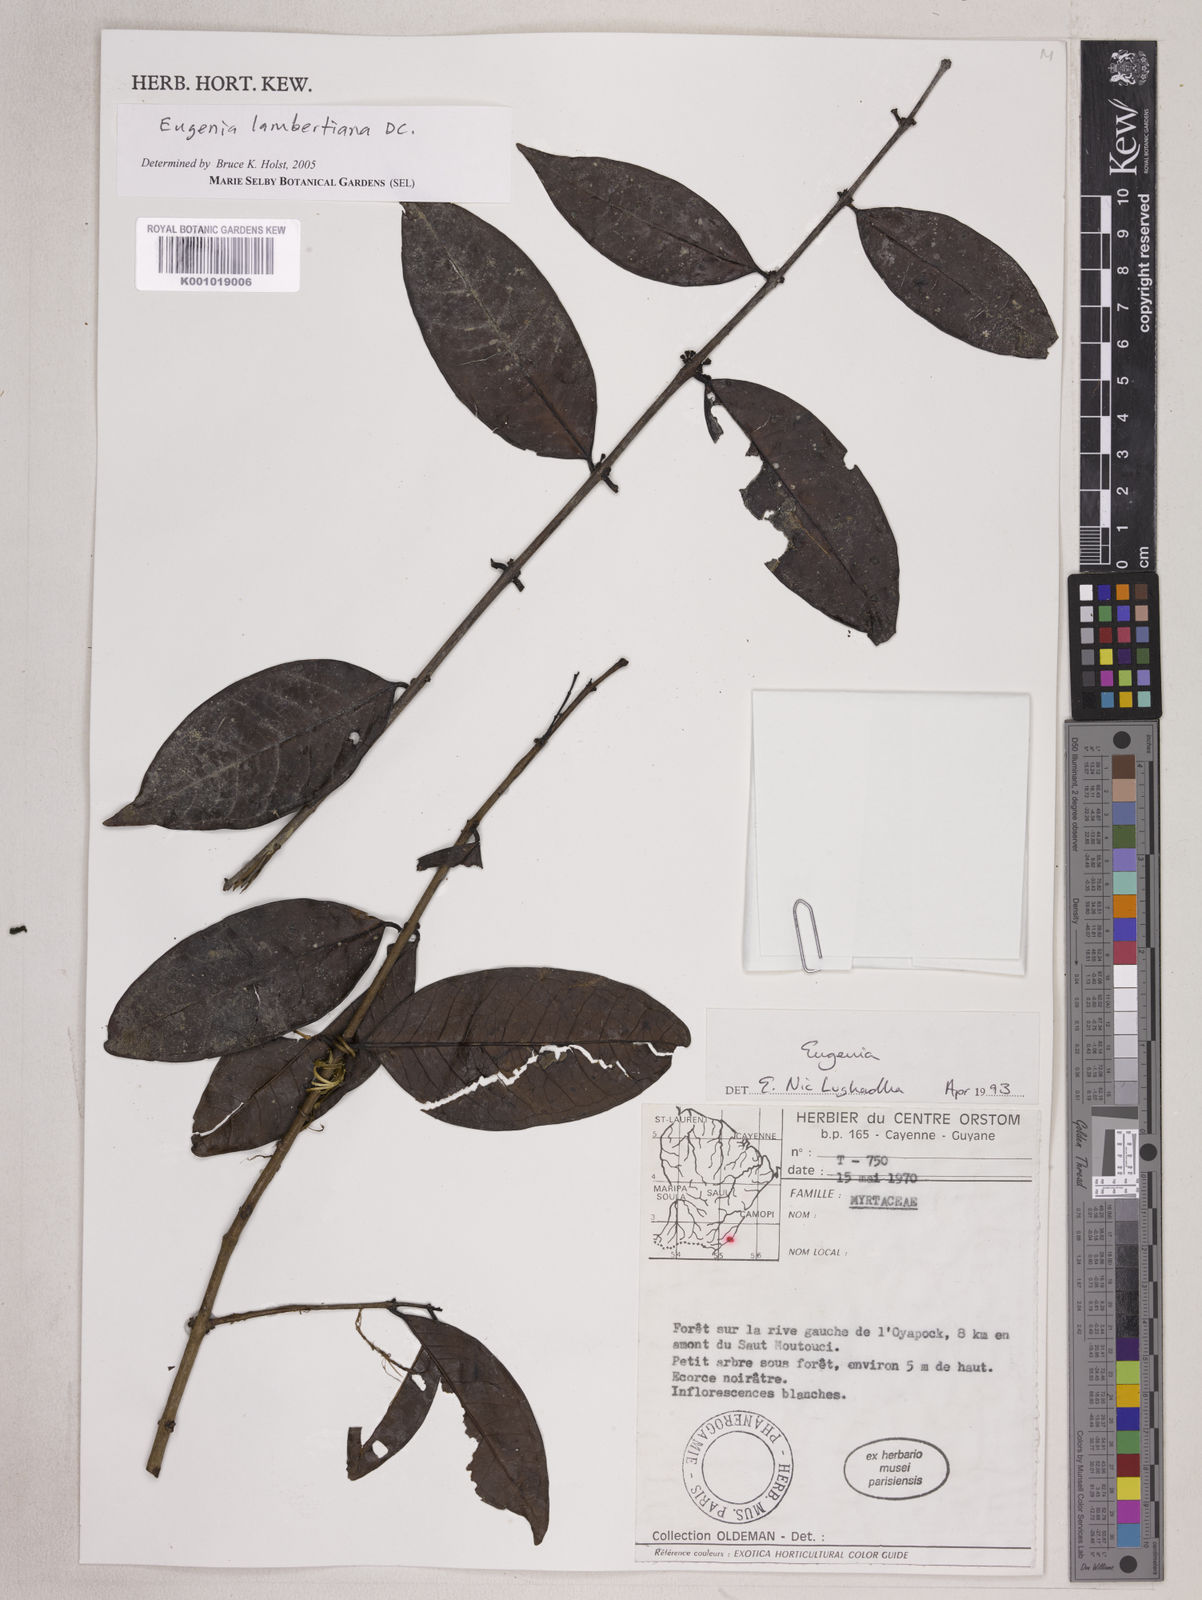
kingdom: Plantae
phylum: Tracheophyta
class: Magnoliopsida
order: Myrtales
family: Myrtaceae
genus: Eugenia
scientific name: Eugenia lambertiana
